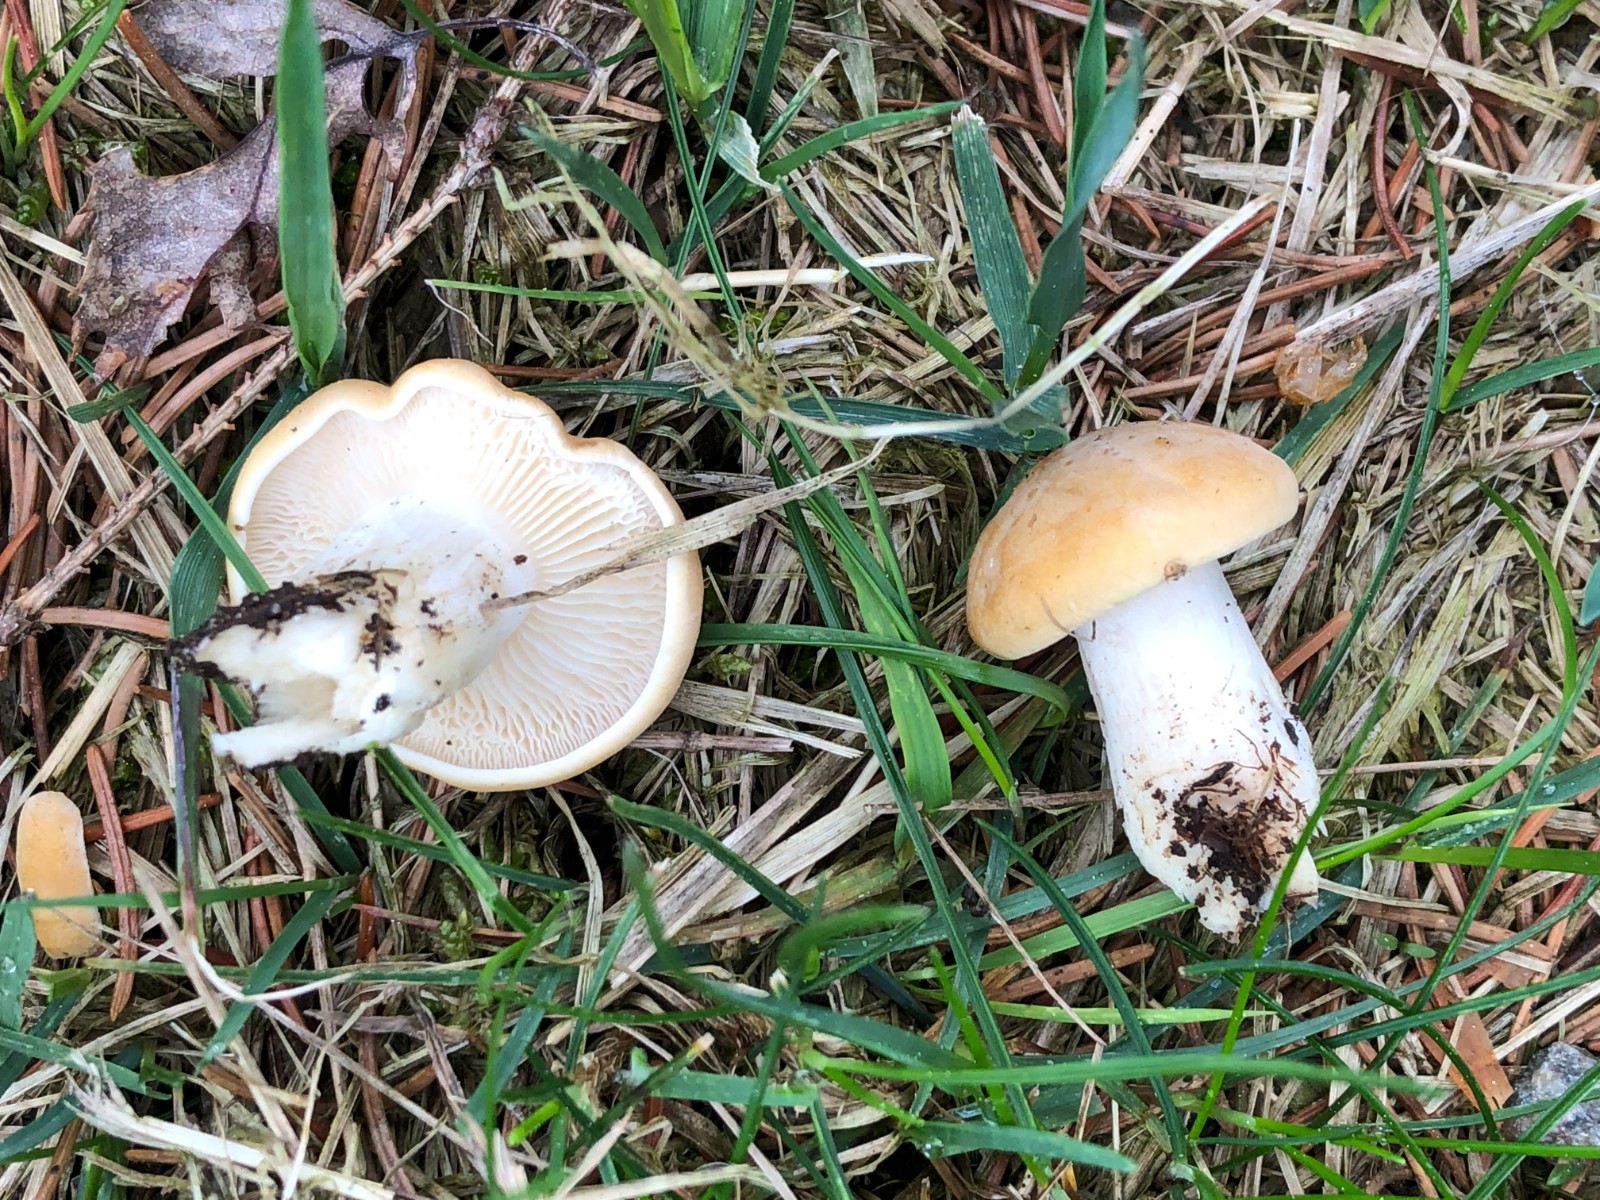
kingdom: Fungi
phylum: Basidiomycota
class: Agaricomycetes
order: Agaricales
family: Lyophyllaceae
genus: Calocybe
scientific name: Calocybe gambosa
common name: vårmusseron
